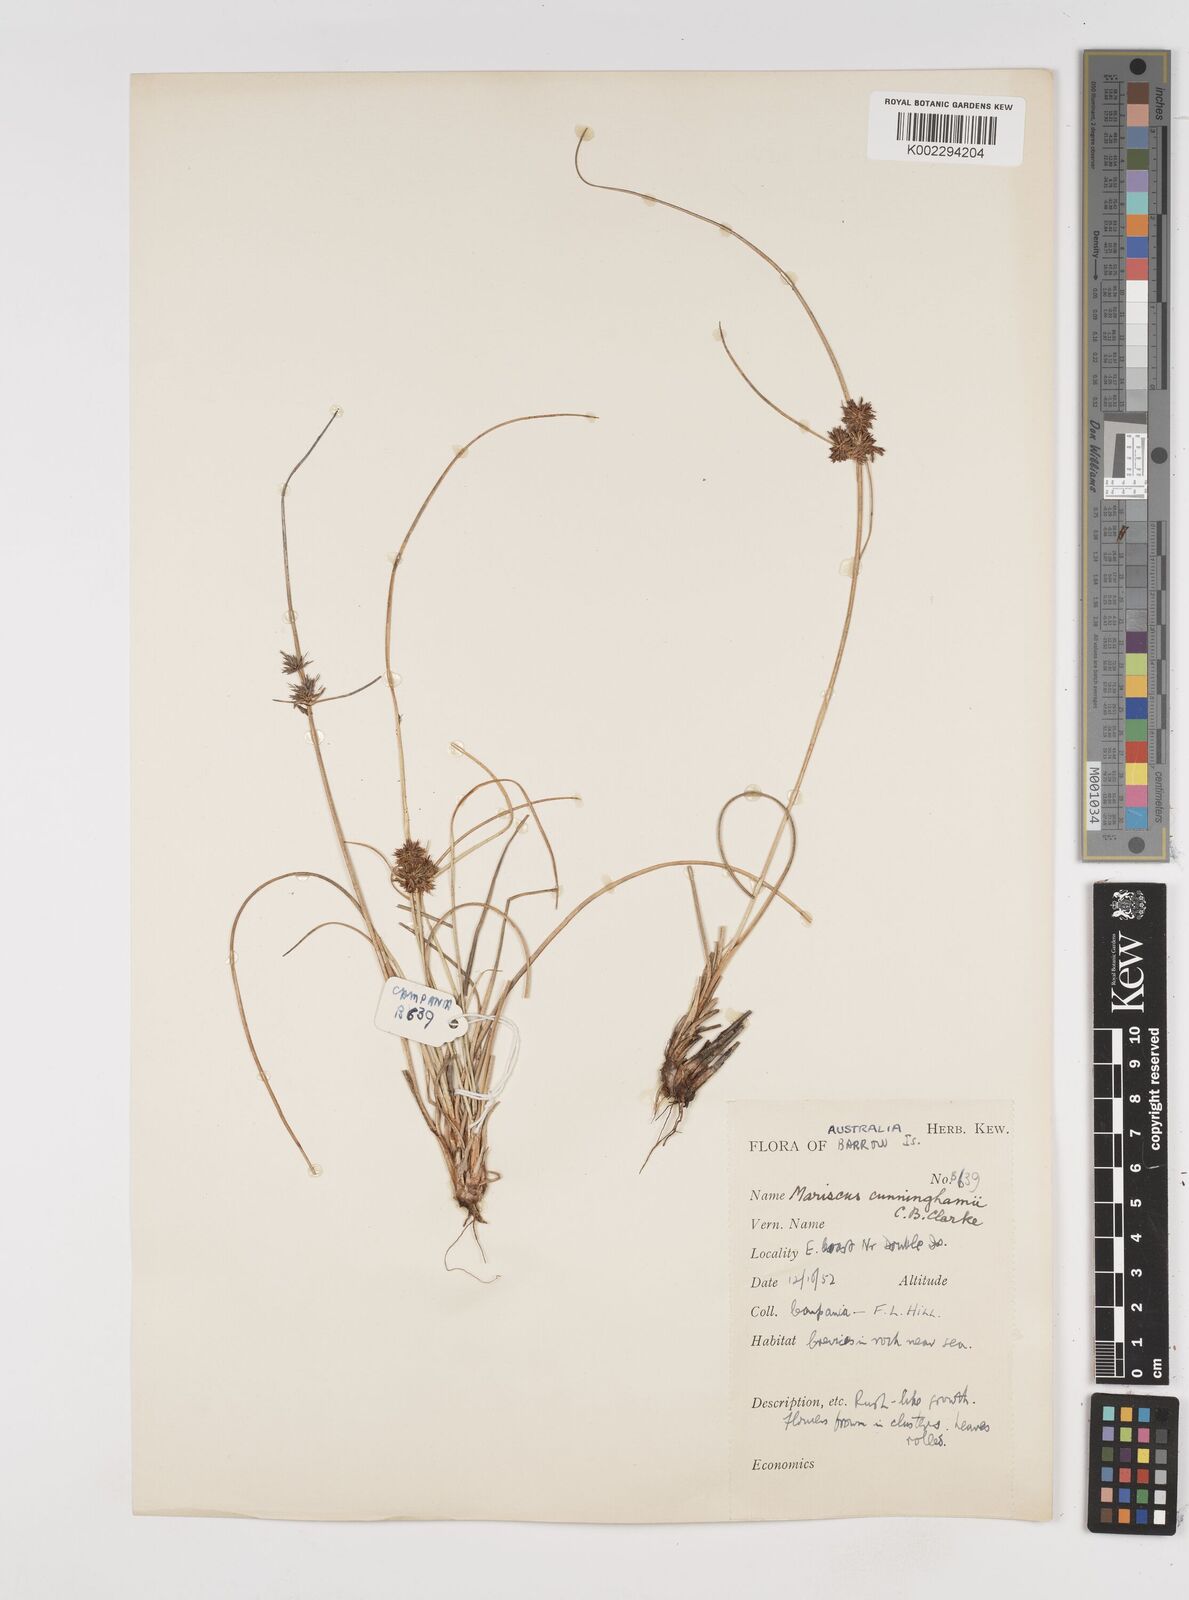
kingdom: Plantae
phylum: Tracheophyta
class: Liliopsida
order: Poales
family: Cyperaceae
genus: Cyperus
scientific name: Cyperus cunninghamii
